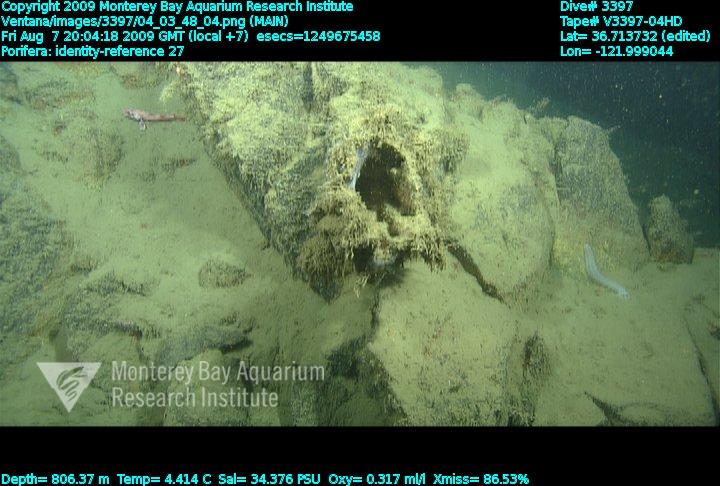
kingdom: Animalia
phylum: Porifera
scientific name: Porifera
